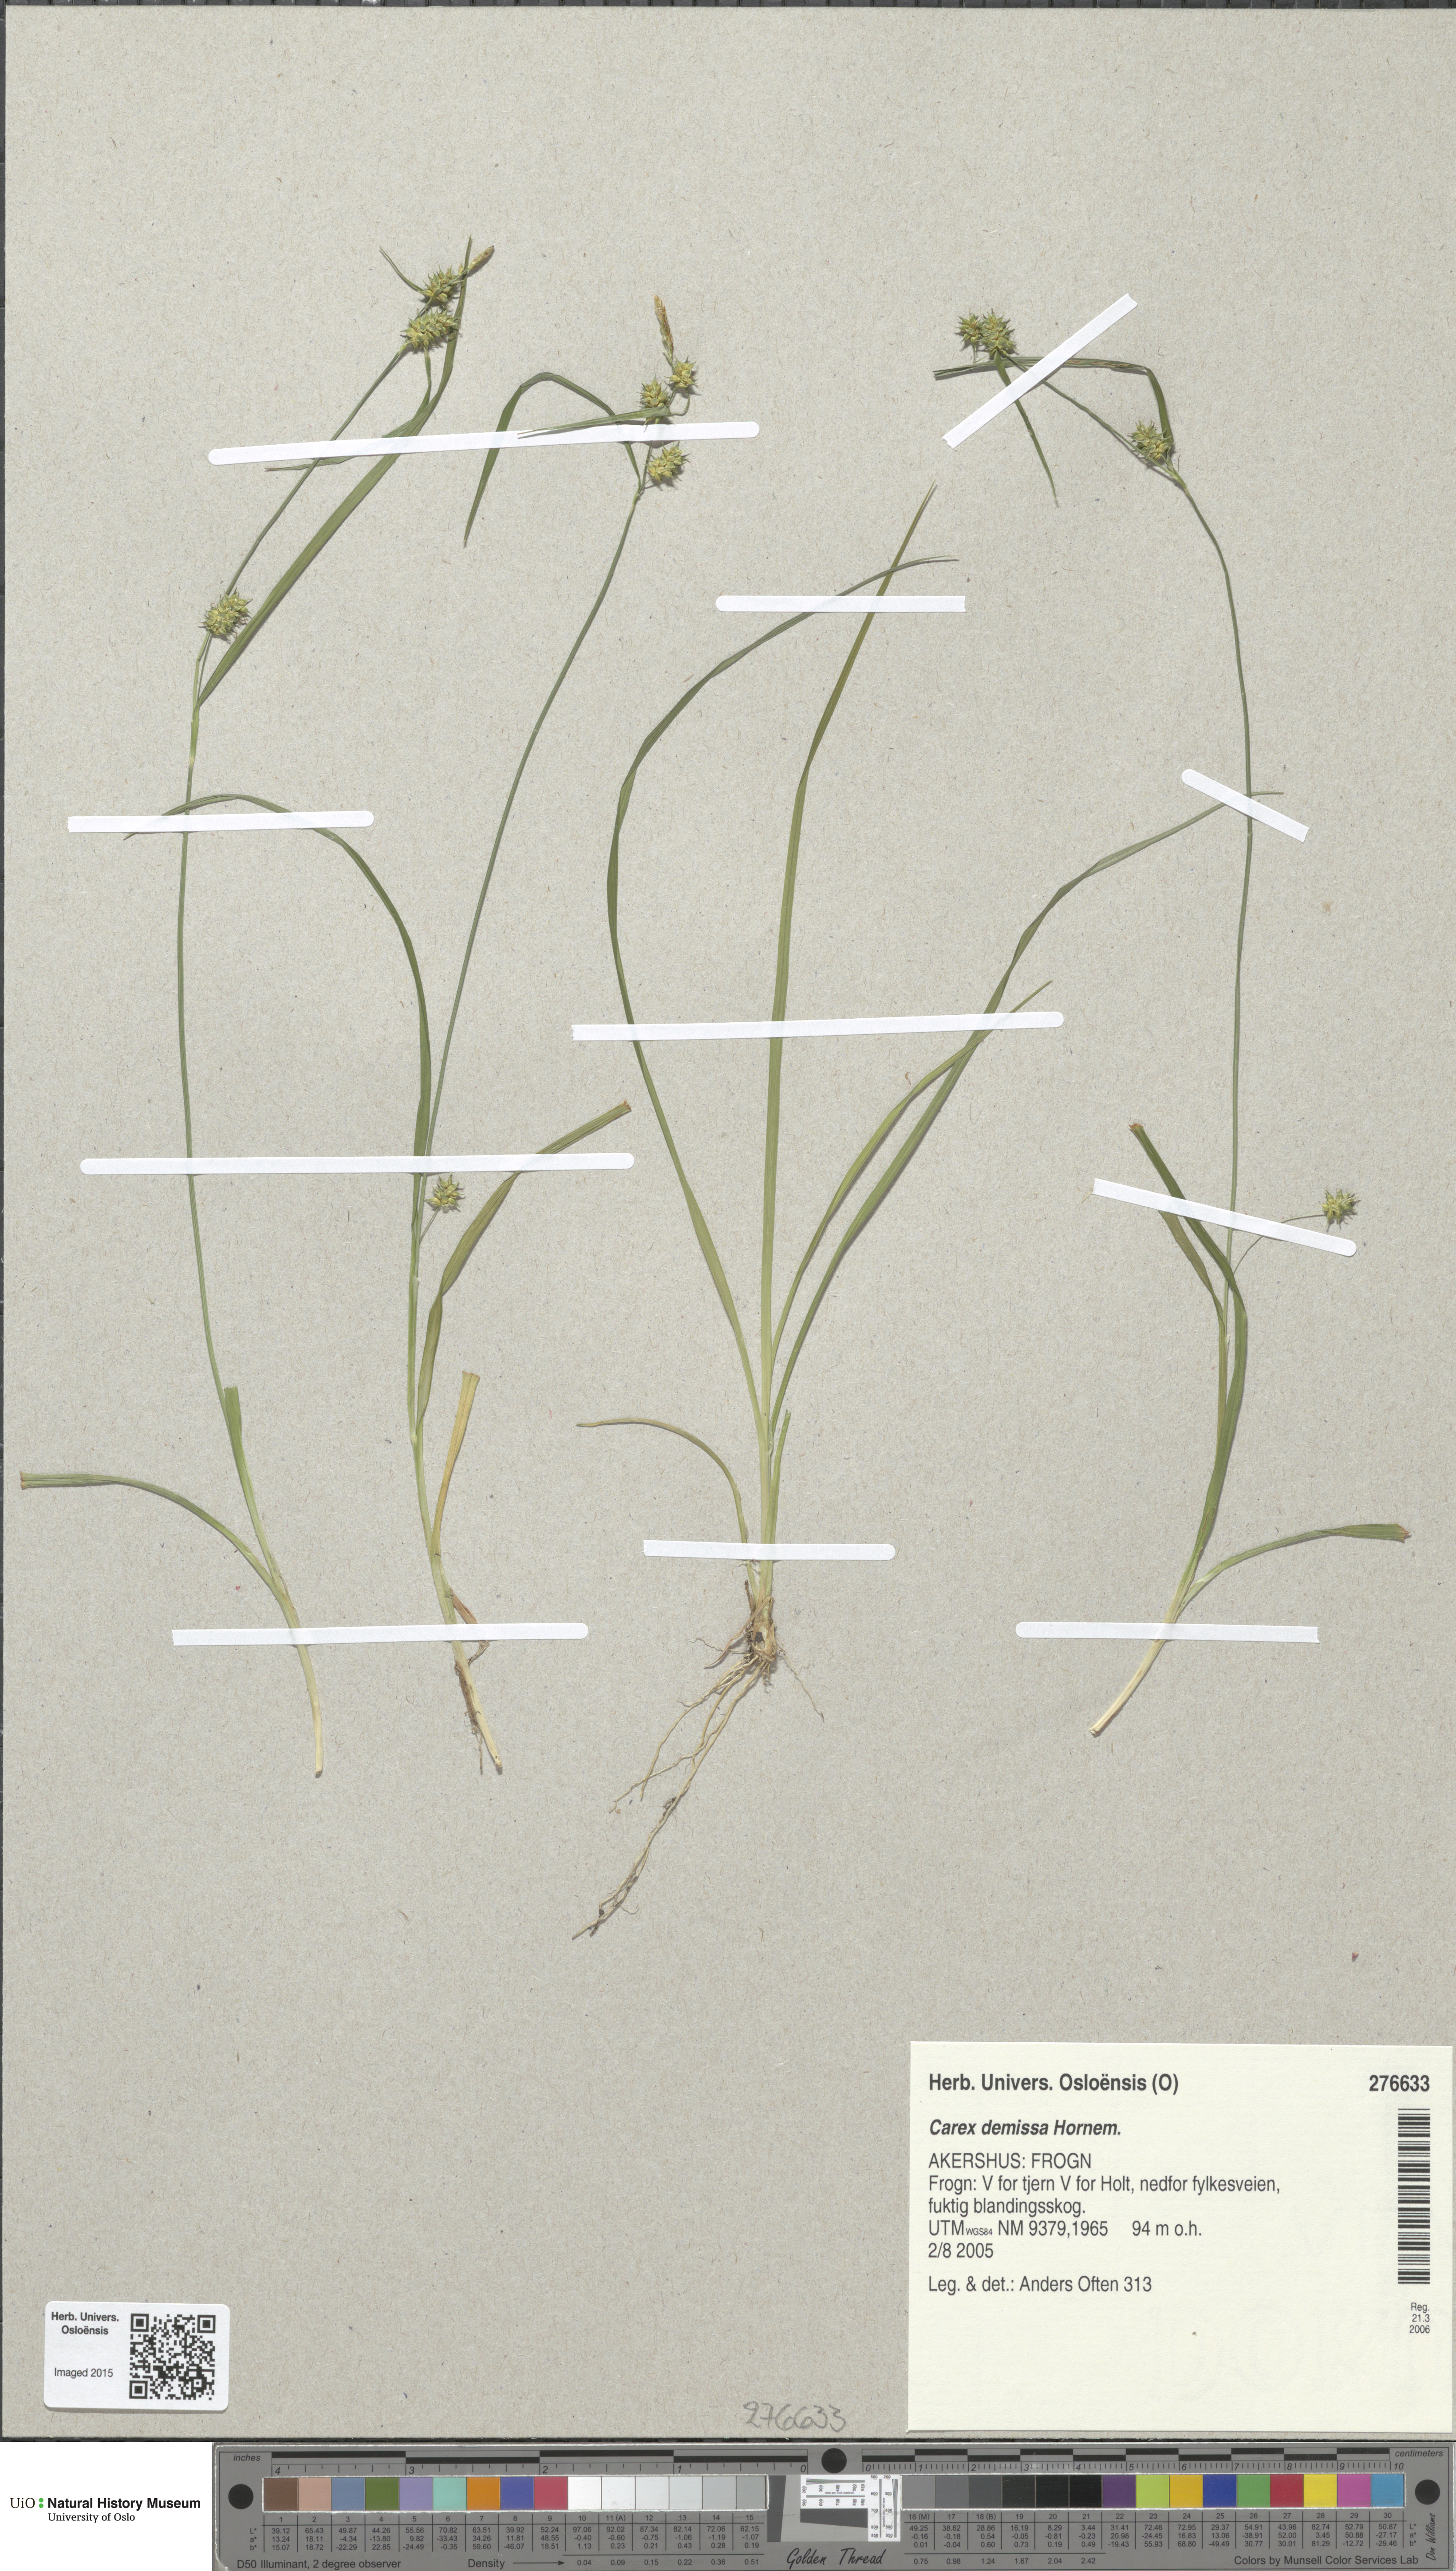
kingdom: Plantae
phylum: Tracheophyta
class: Liliopsida
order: Poales
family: Cyperaceae
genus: Carex
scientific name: Carex demissa
